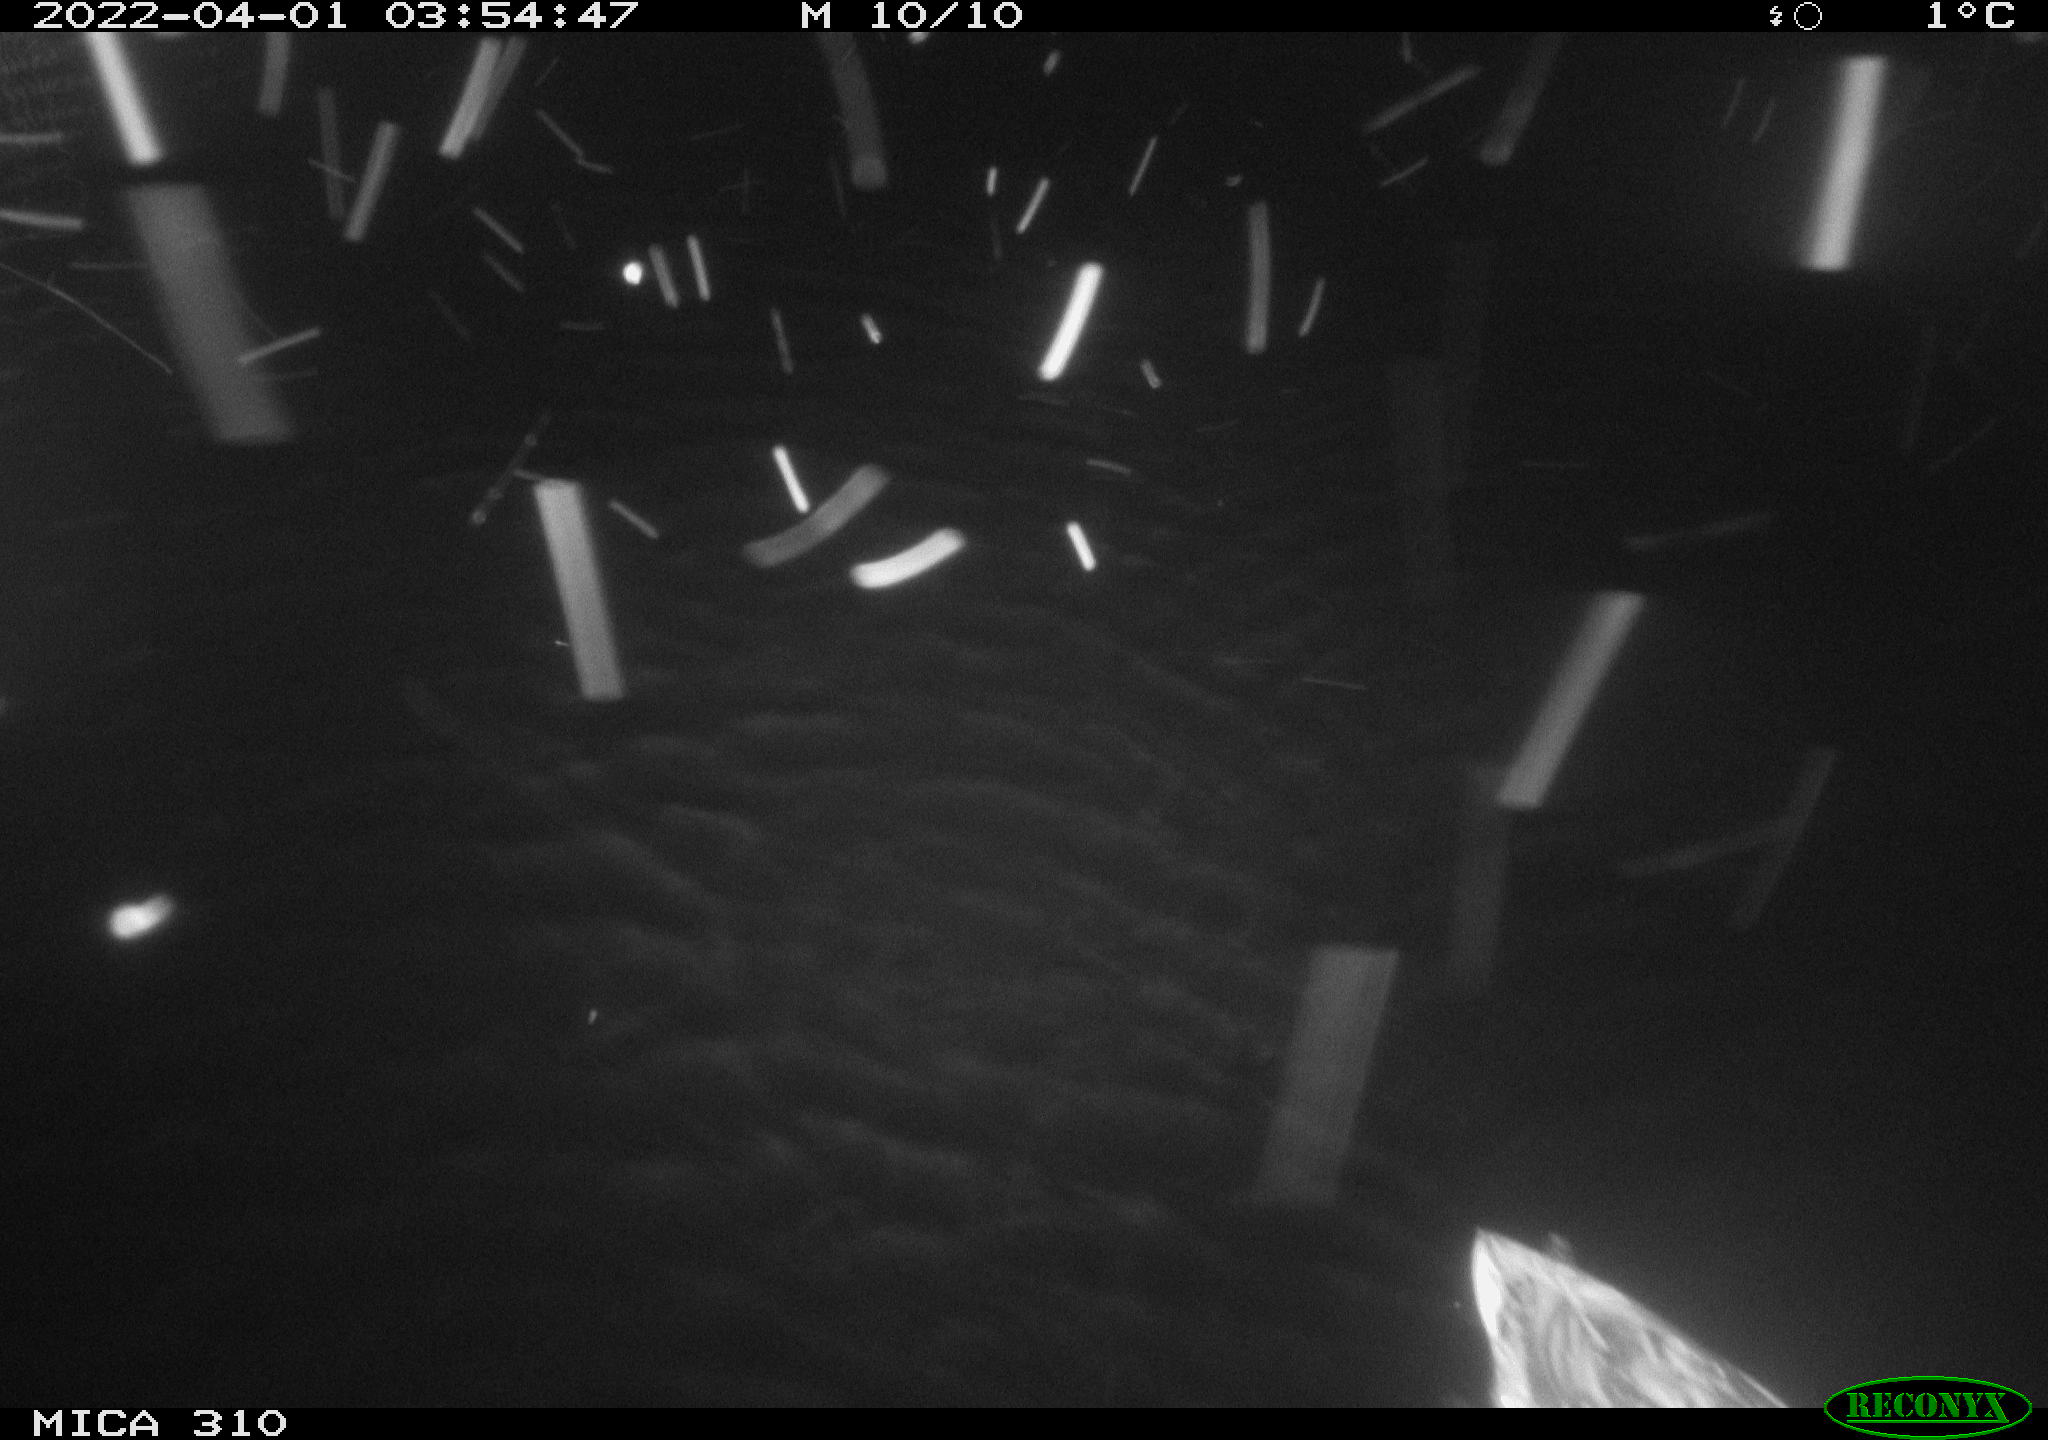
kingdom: Animalia
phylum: Chordata
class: Aves
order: Anseriformes
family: Anatidae
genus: Anas
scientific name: Anas platyrhynchos
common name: Mallard
